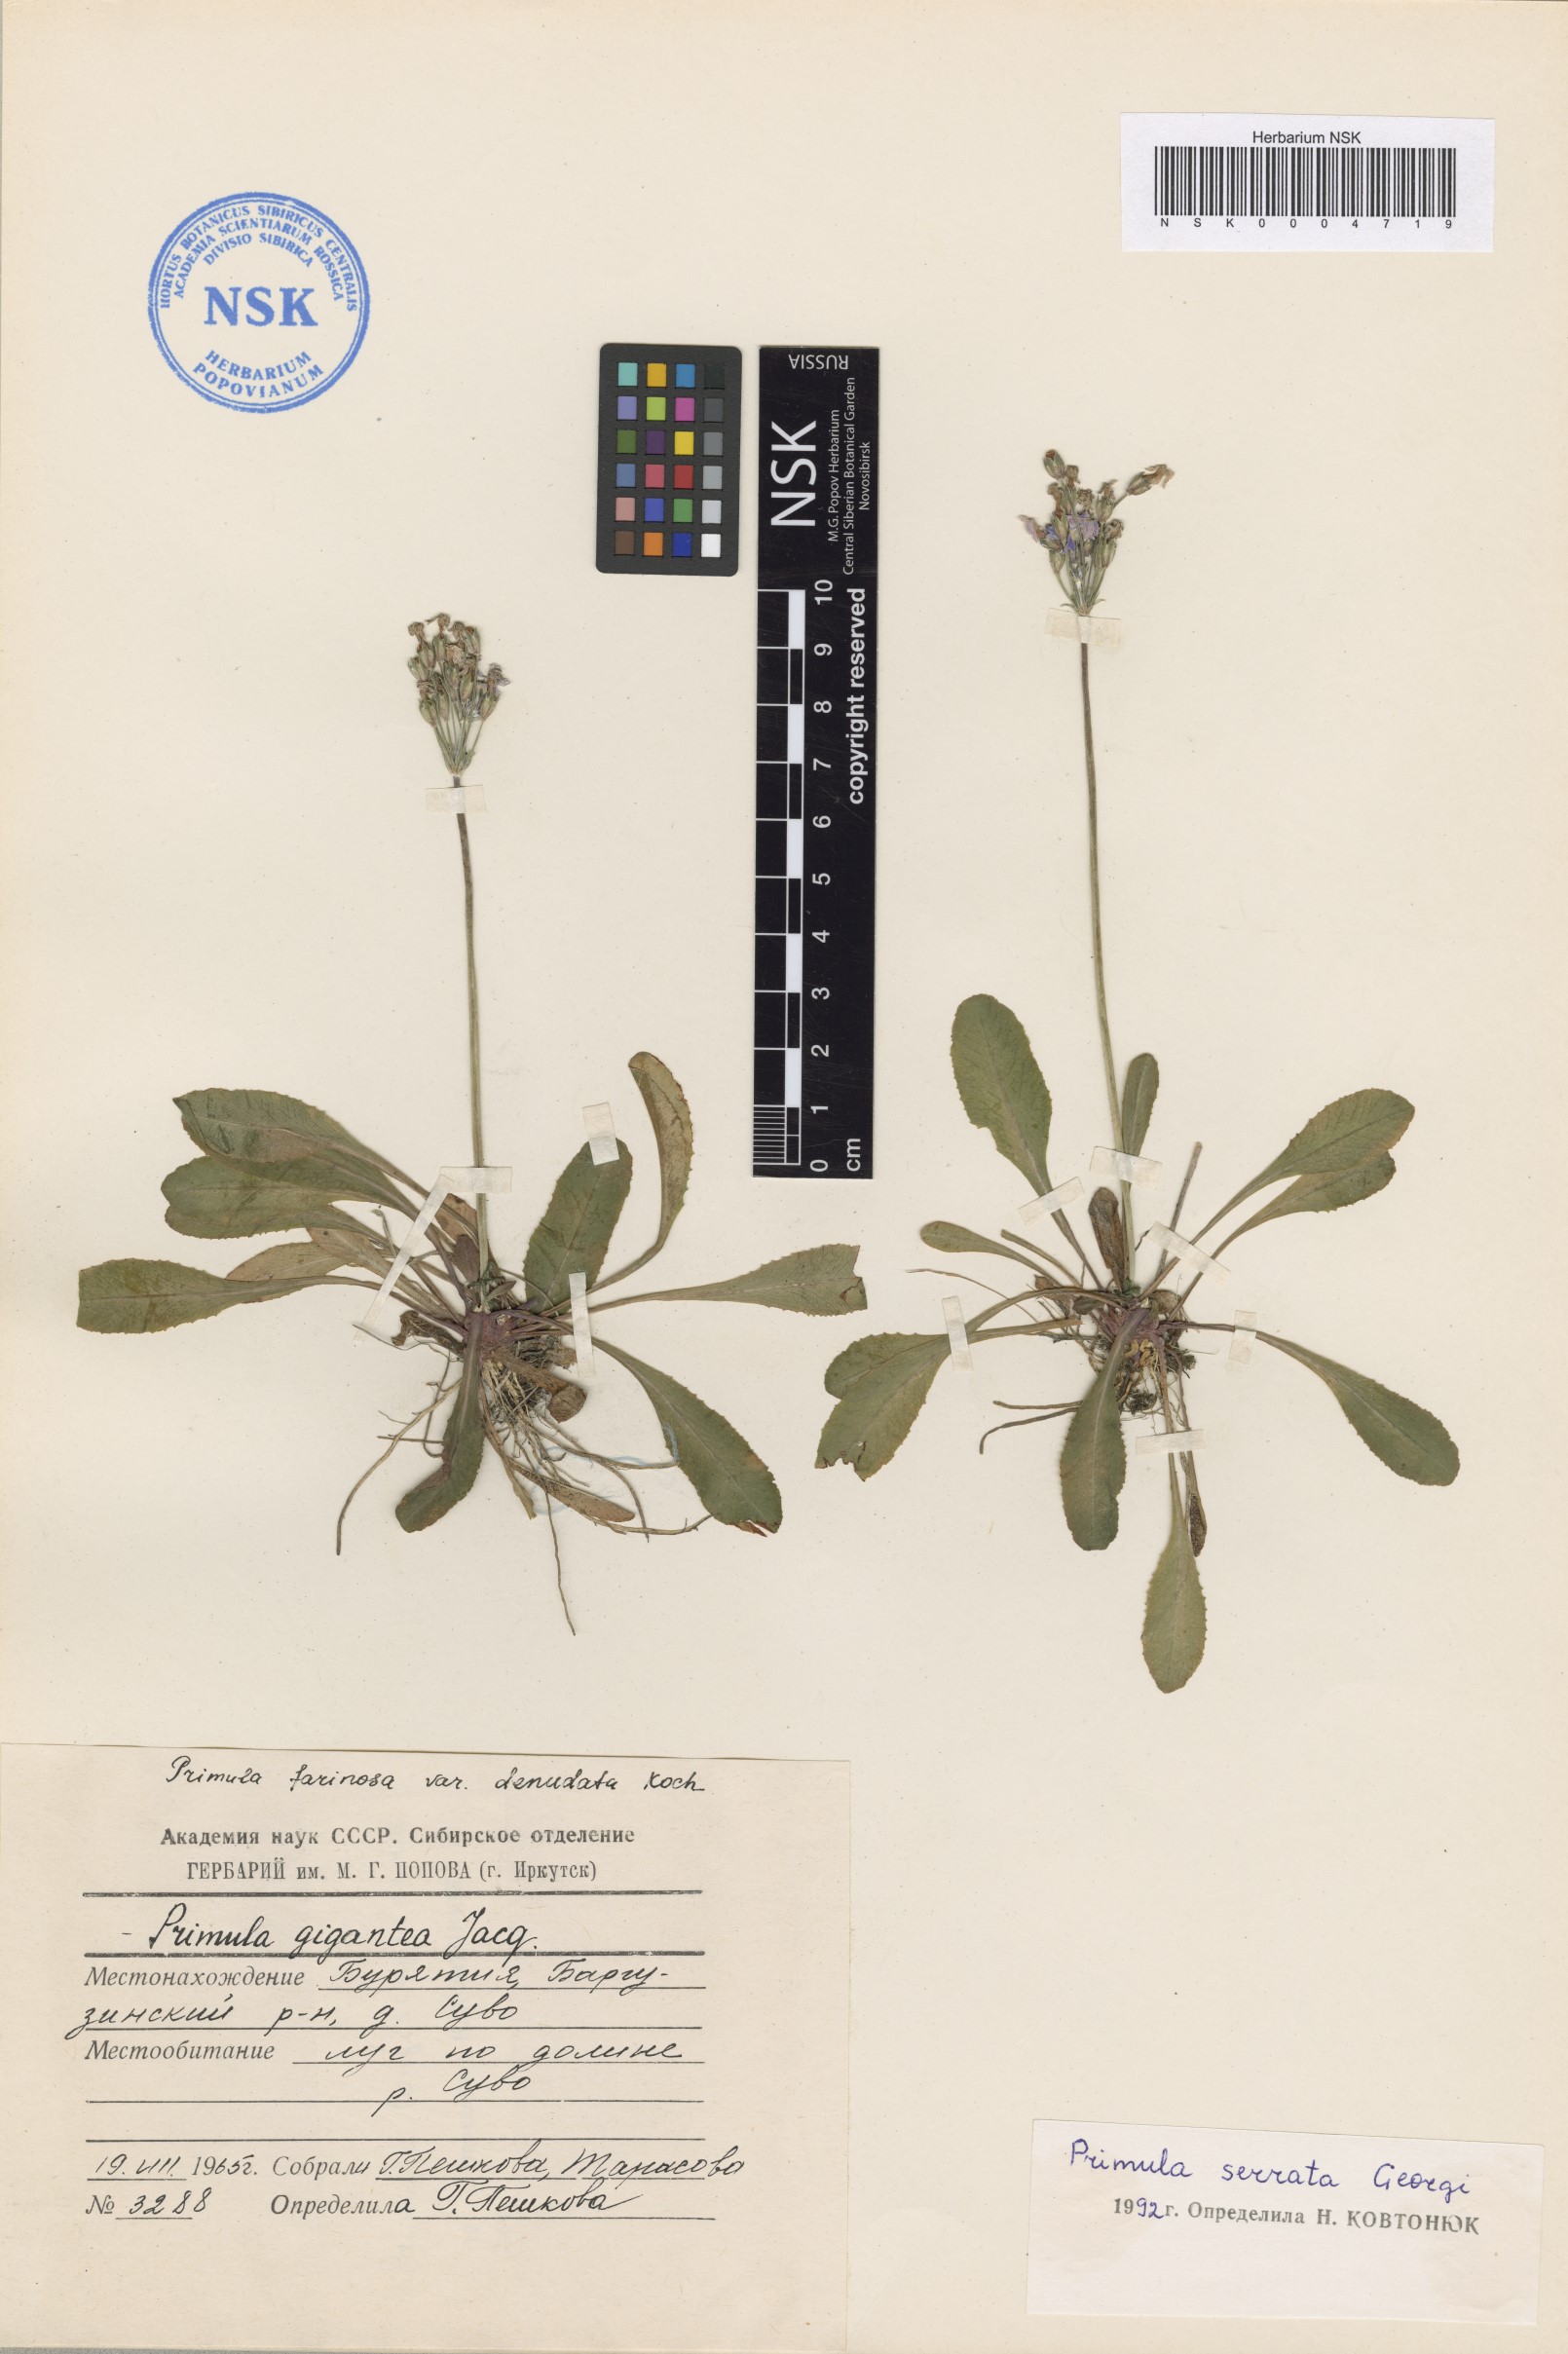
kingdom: Plantae
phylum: Tracheophyta
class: Magnoliopsida
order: Ericales
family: Primulaceae
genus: Primula
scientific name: Primula serrata
